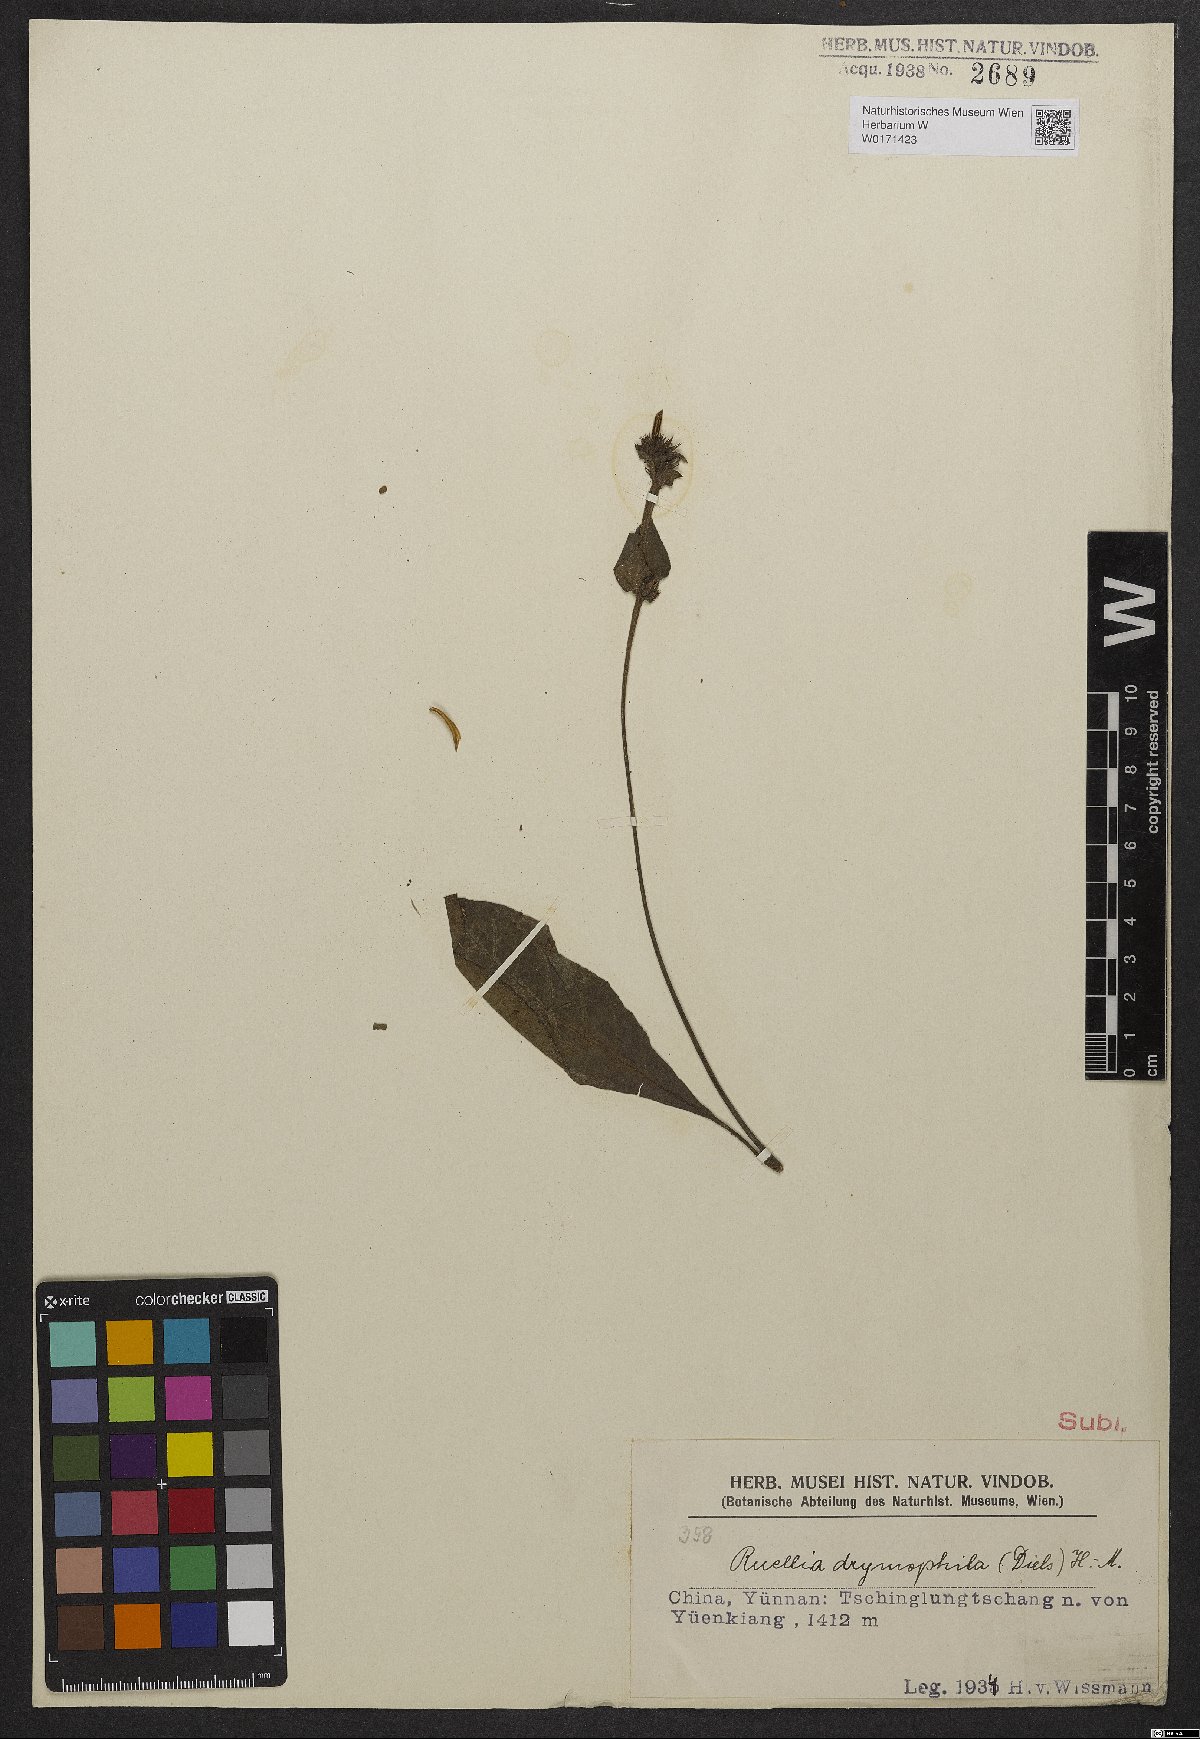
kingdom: Plantae
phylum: Tracheophyta
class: Magnoliopsida
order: Lamiales
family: Acanthaceae
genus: Pararuellia
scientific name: Pararuellia delavayana
